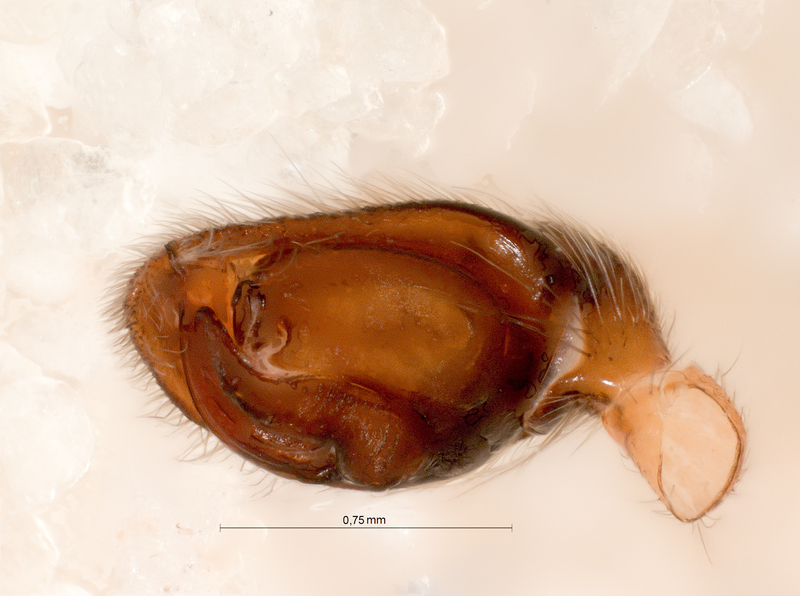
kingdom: Animalia
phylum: Arthropoda
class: Arachnida
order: Araneae
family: Gnaphosidae
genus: Haplodrassus
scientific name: Haplodrassus signifer
